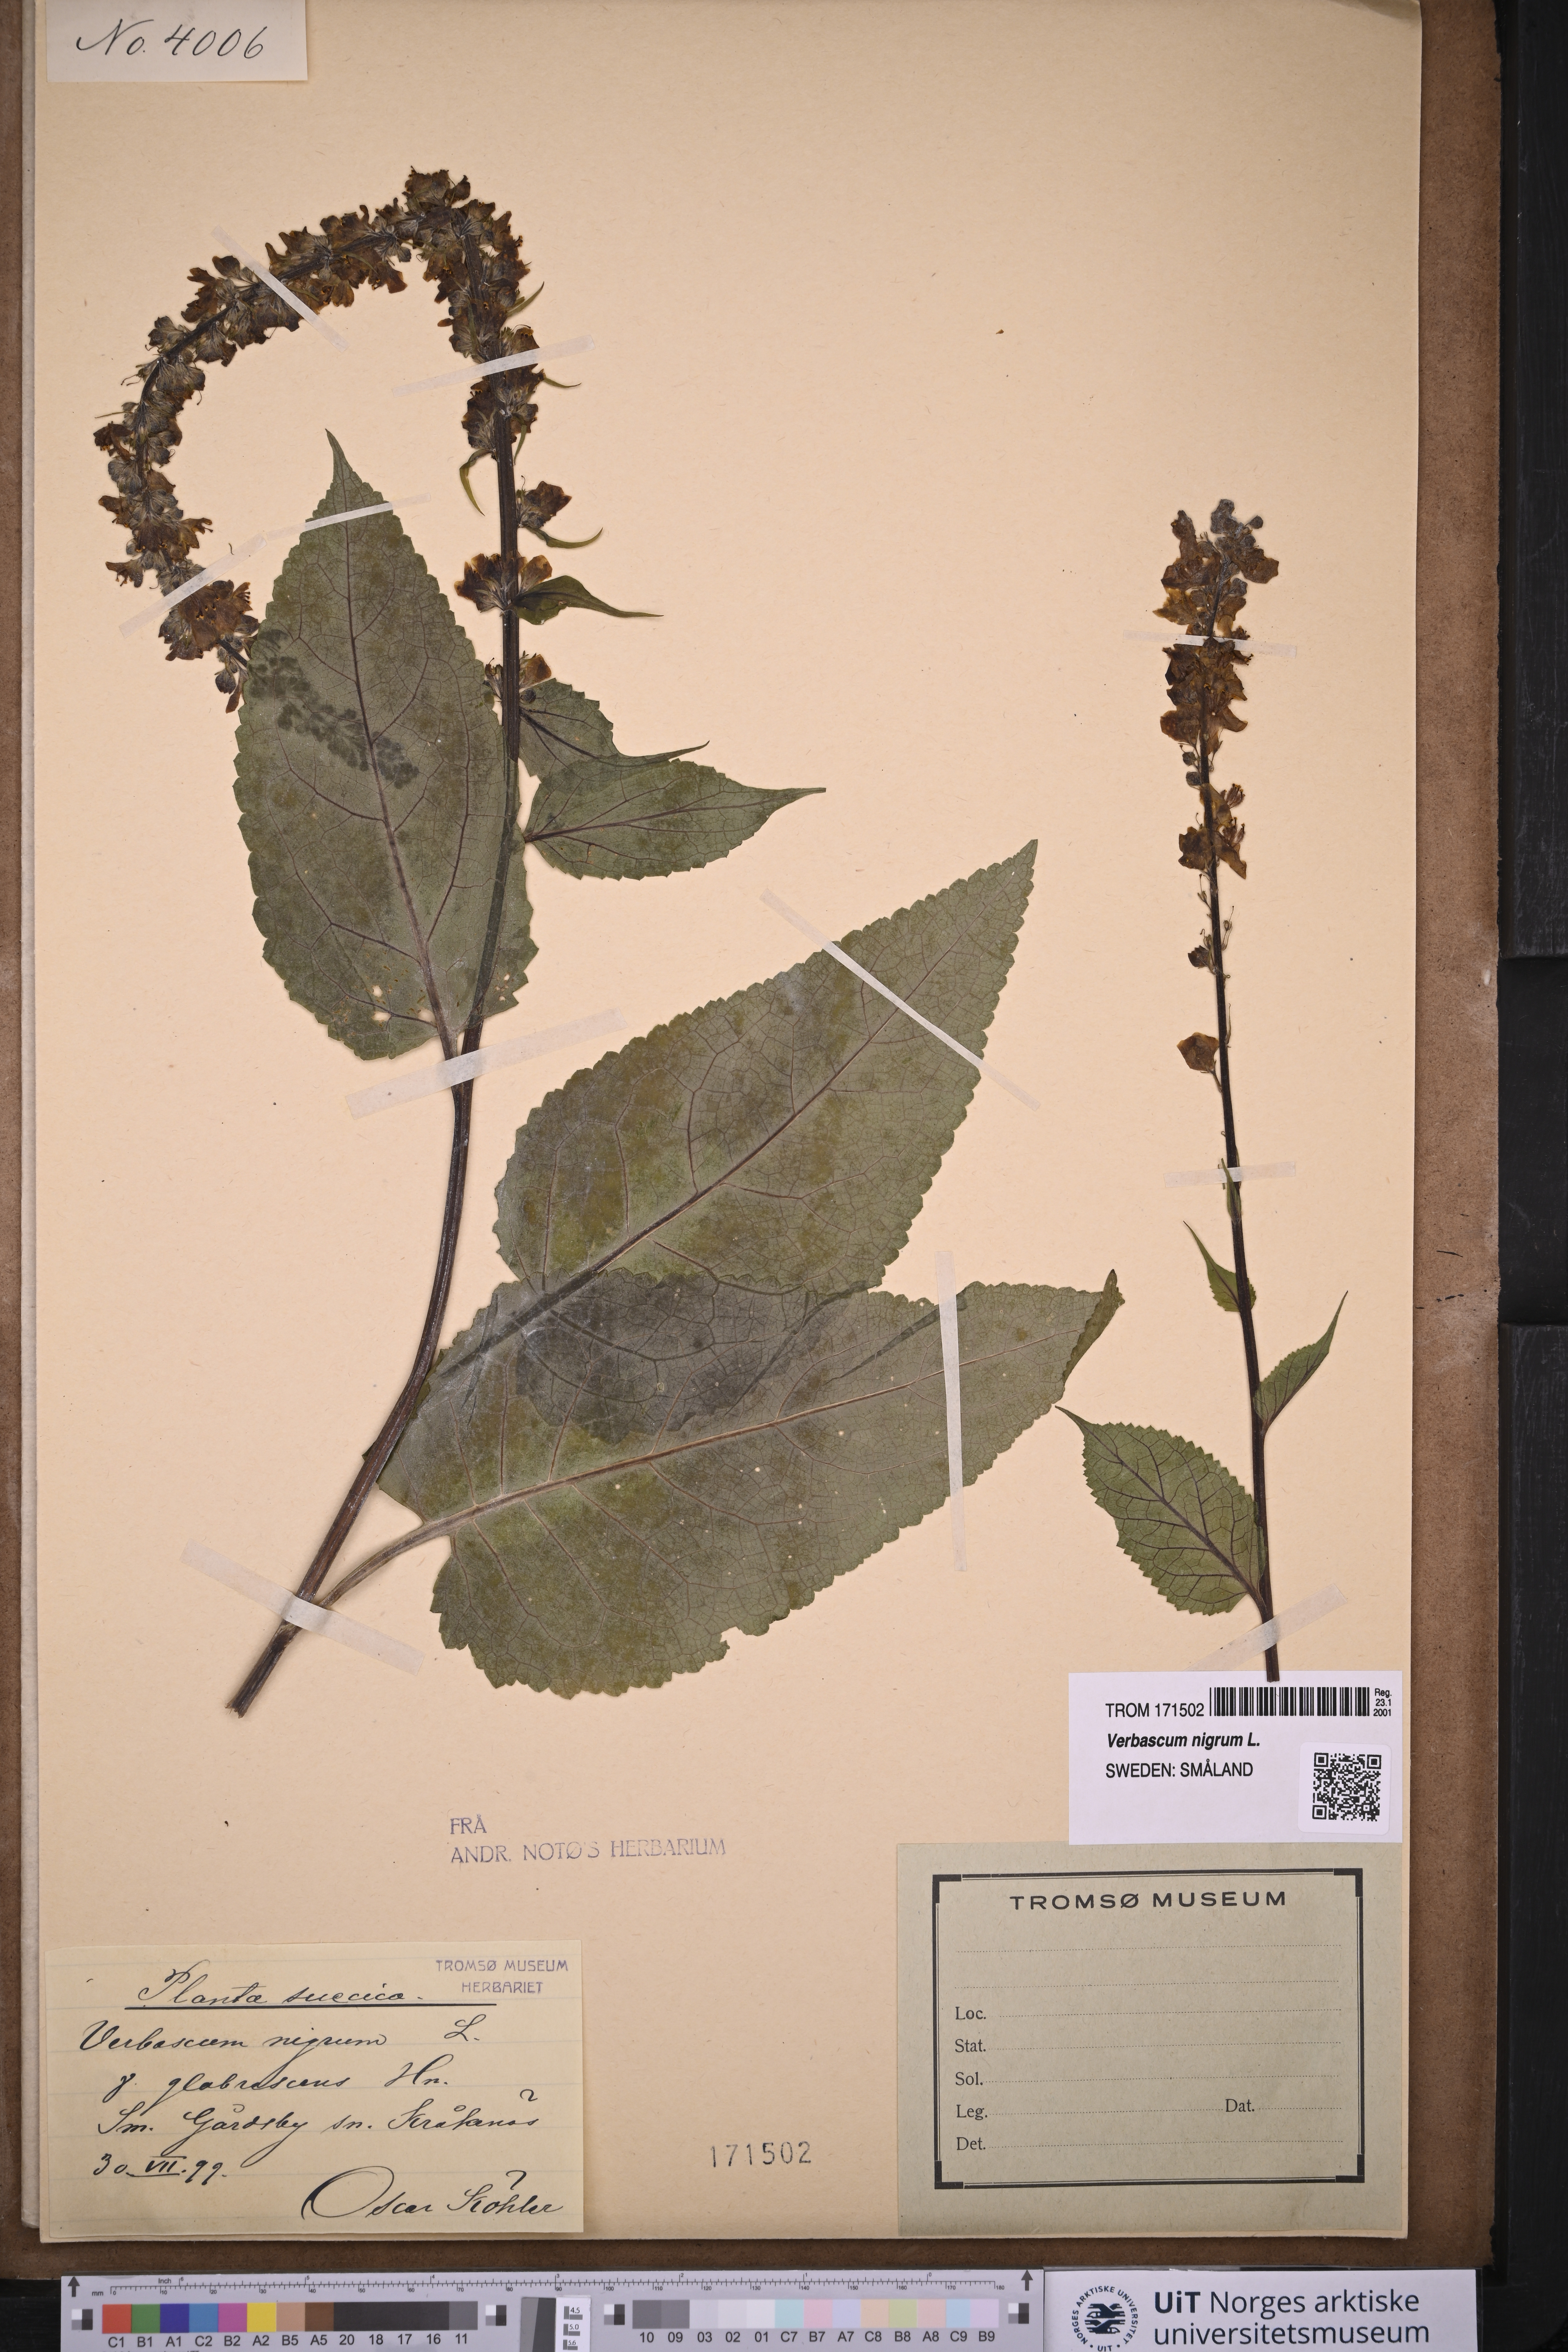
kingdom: Plantae
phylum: Tracheophyta
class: Magnoliopsida
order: Lamiales
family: Scrophulariaceae
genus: Verbascum
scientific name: Verbascum nigrum
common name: Dark mullein
